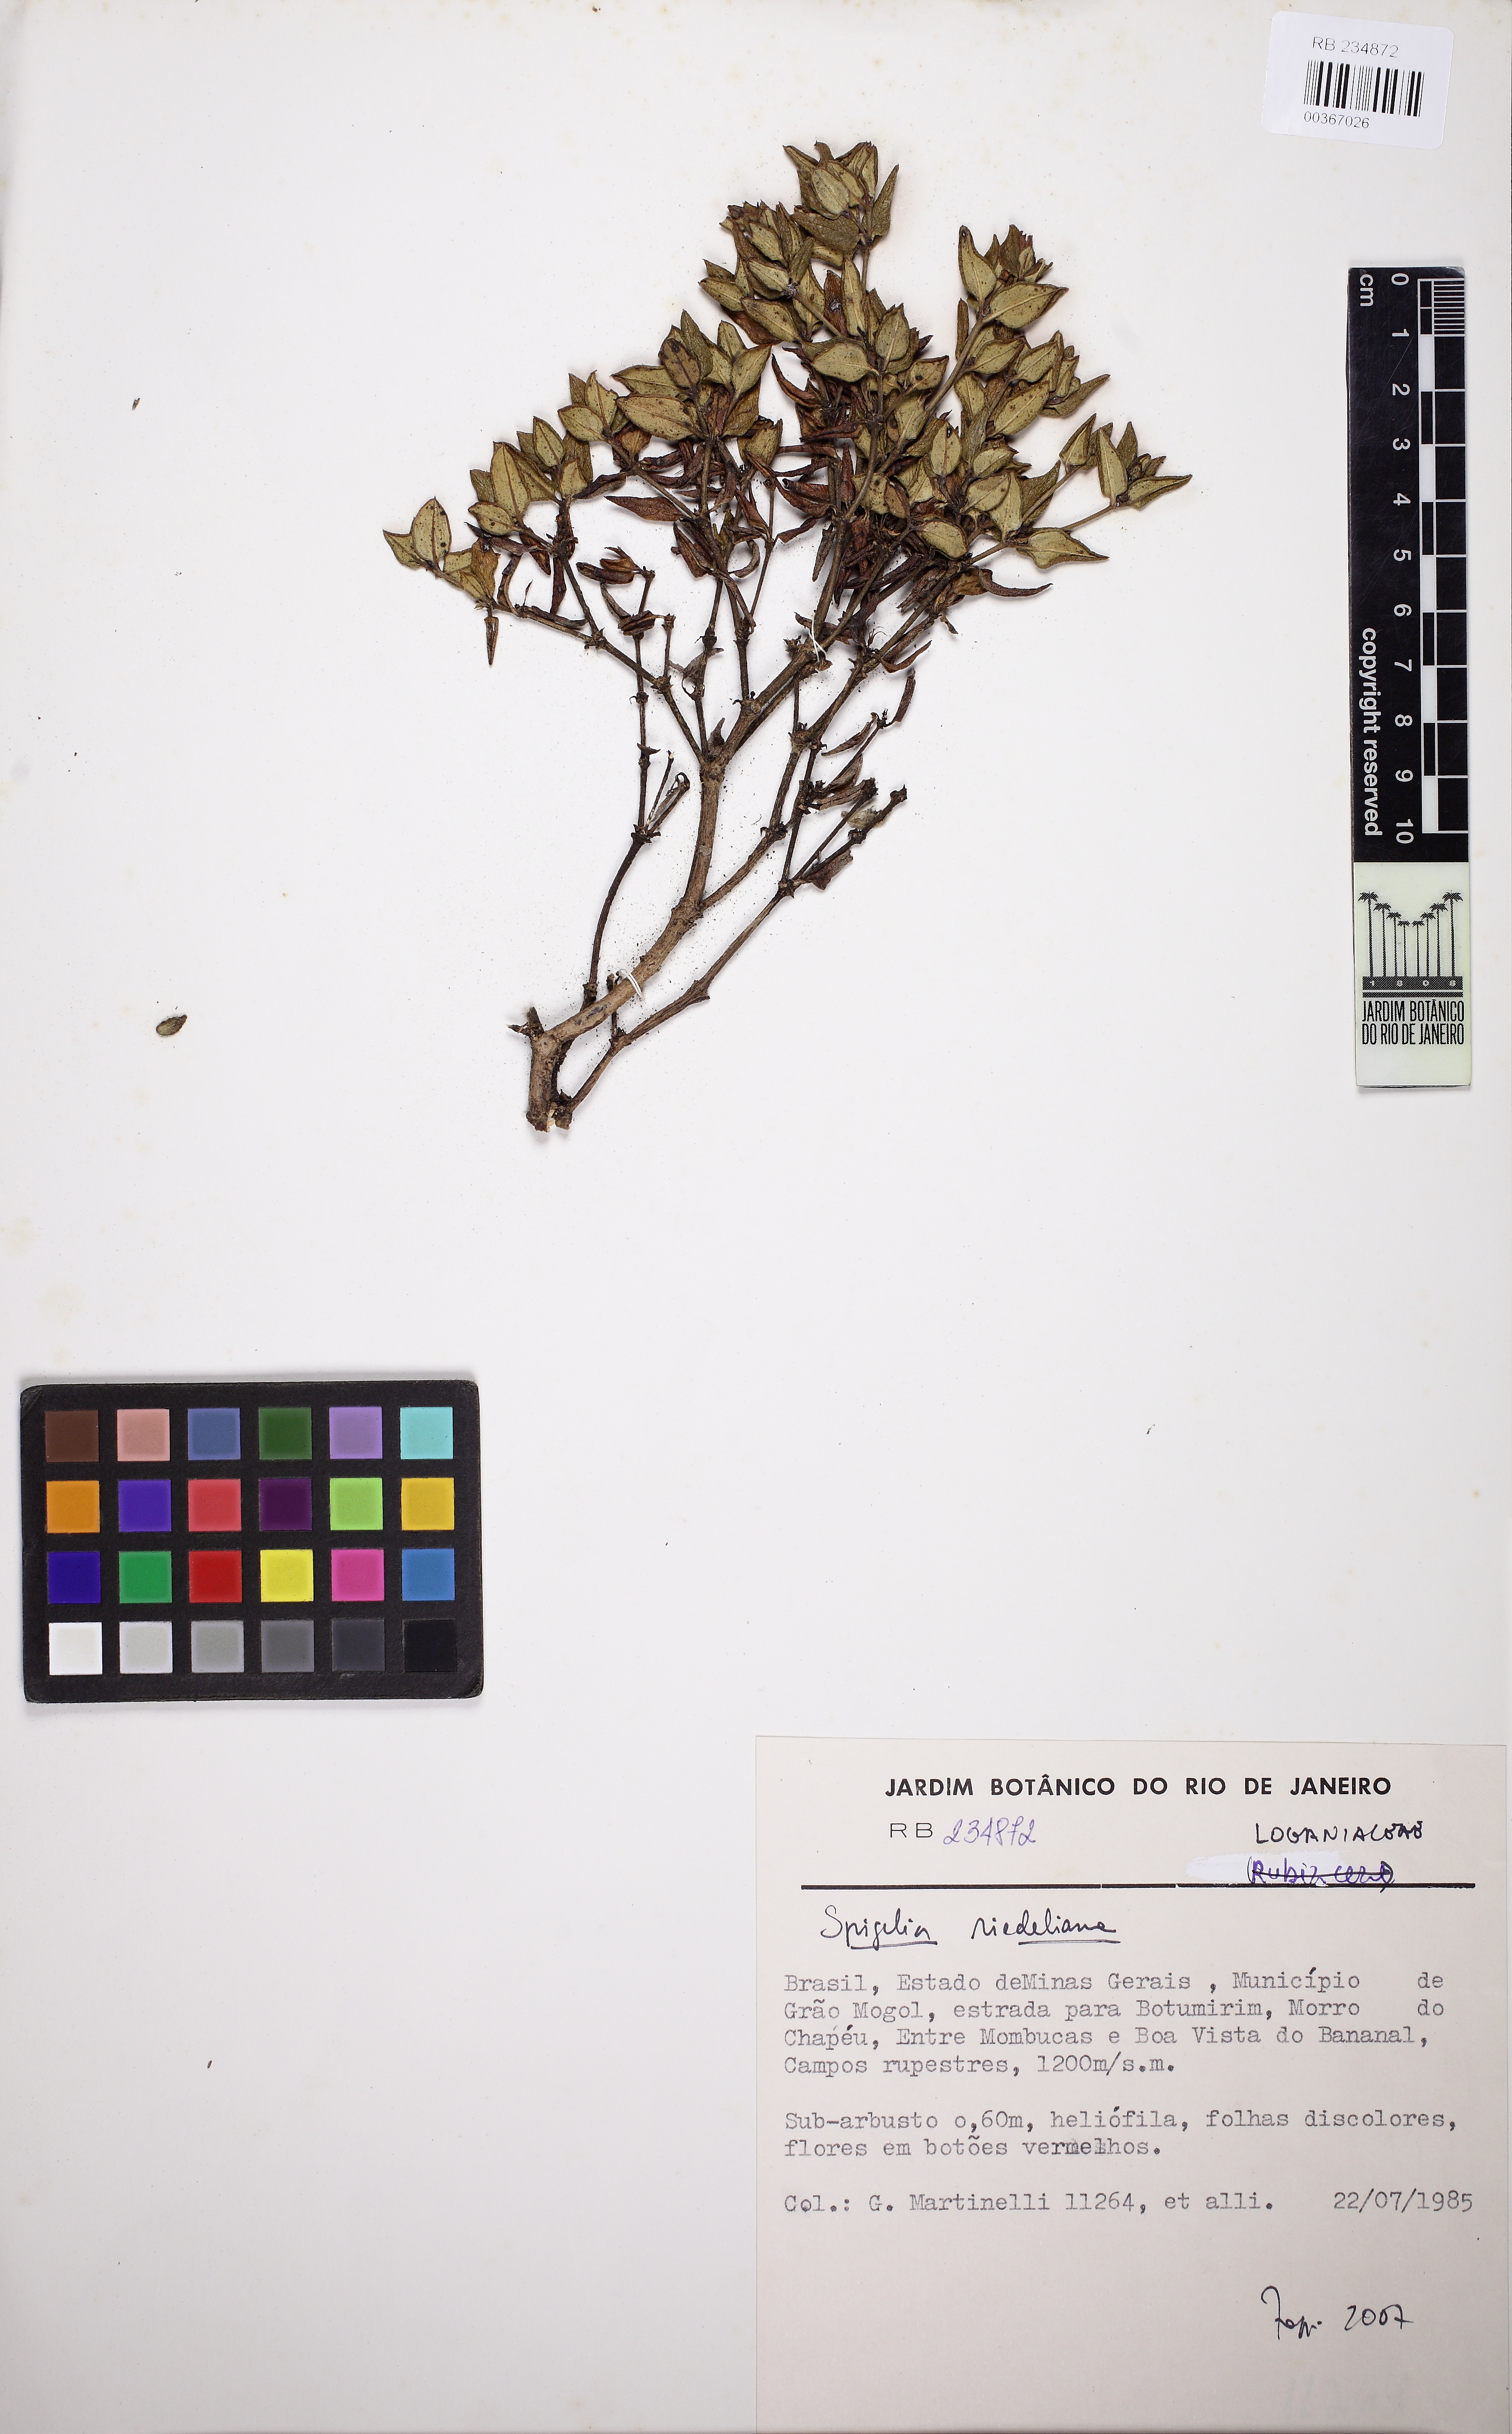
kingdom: Plantae
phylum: Tracheophyta
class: Magnoliopsida
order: Gentianales
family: Loganiaceae
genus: Spigelia
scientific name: Spigelia riedeliana
